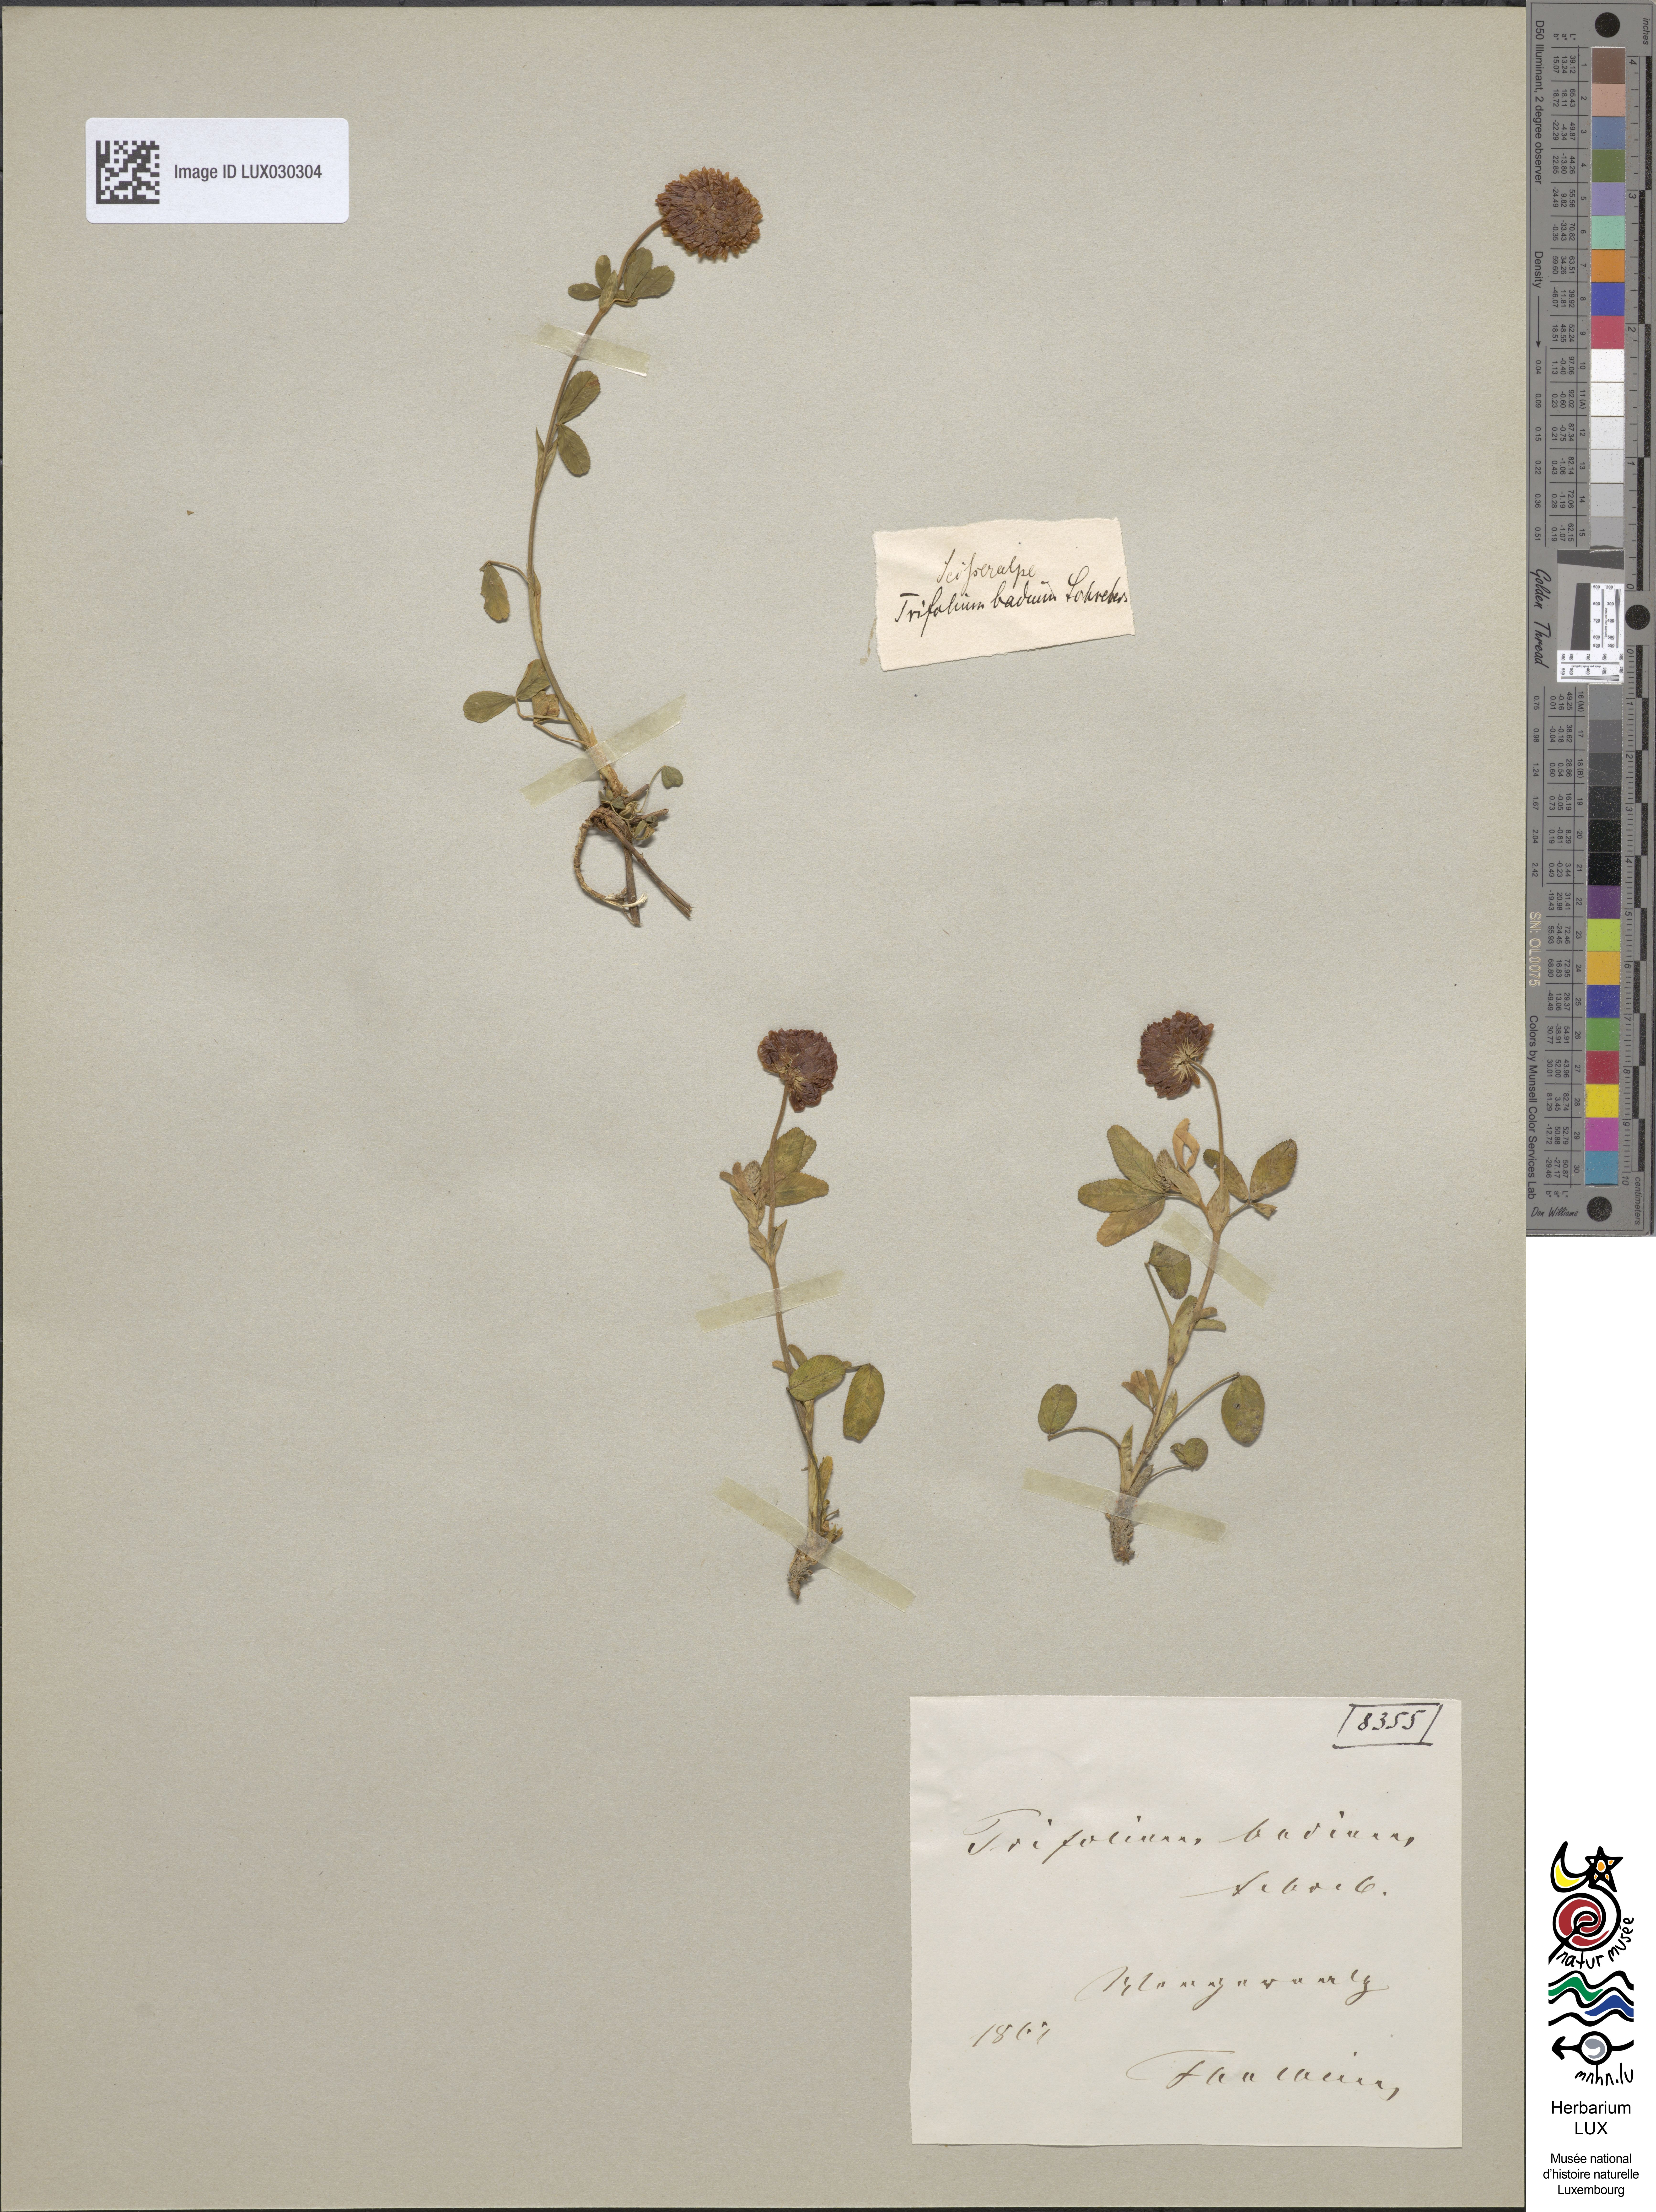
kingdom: Plantae
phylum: Tracheophyta
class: Magnoliopsida
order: Fabales
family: Fabaceae
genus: Trifolium
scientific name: Trifolium badium
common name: Brown clover
